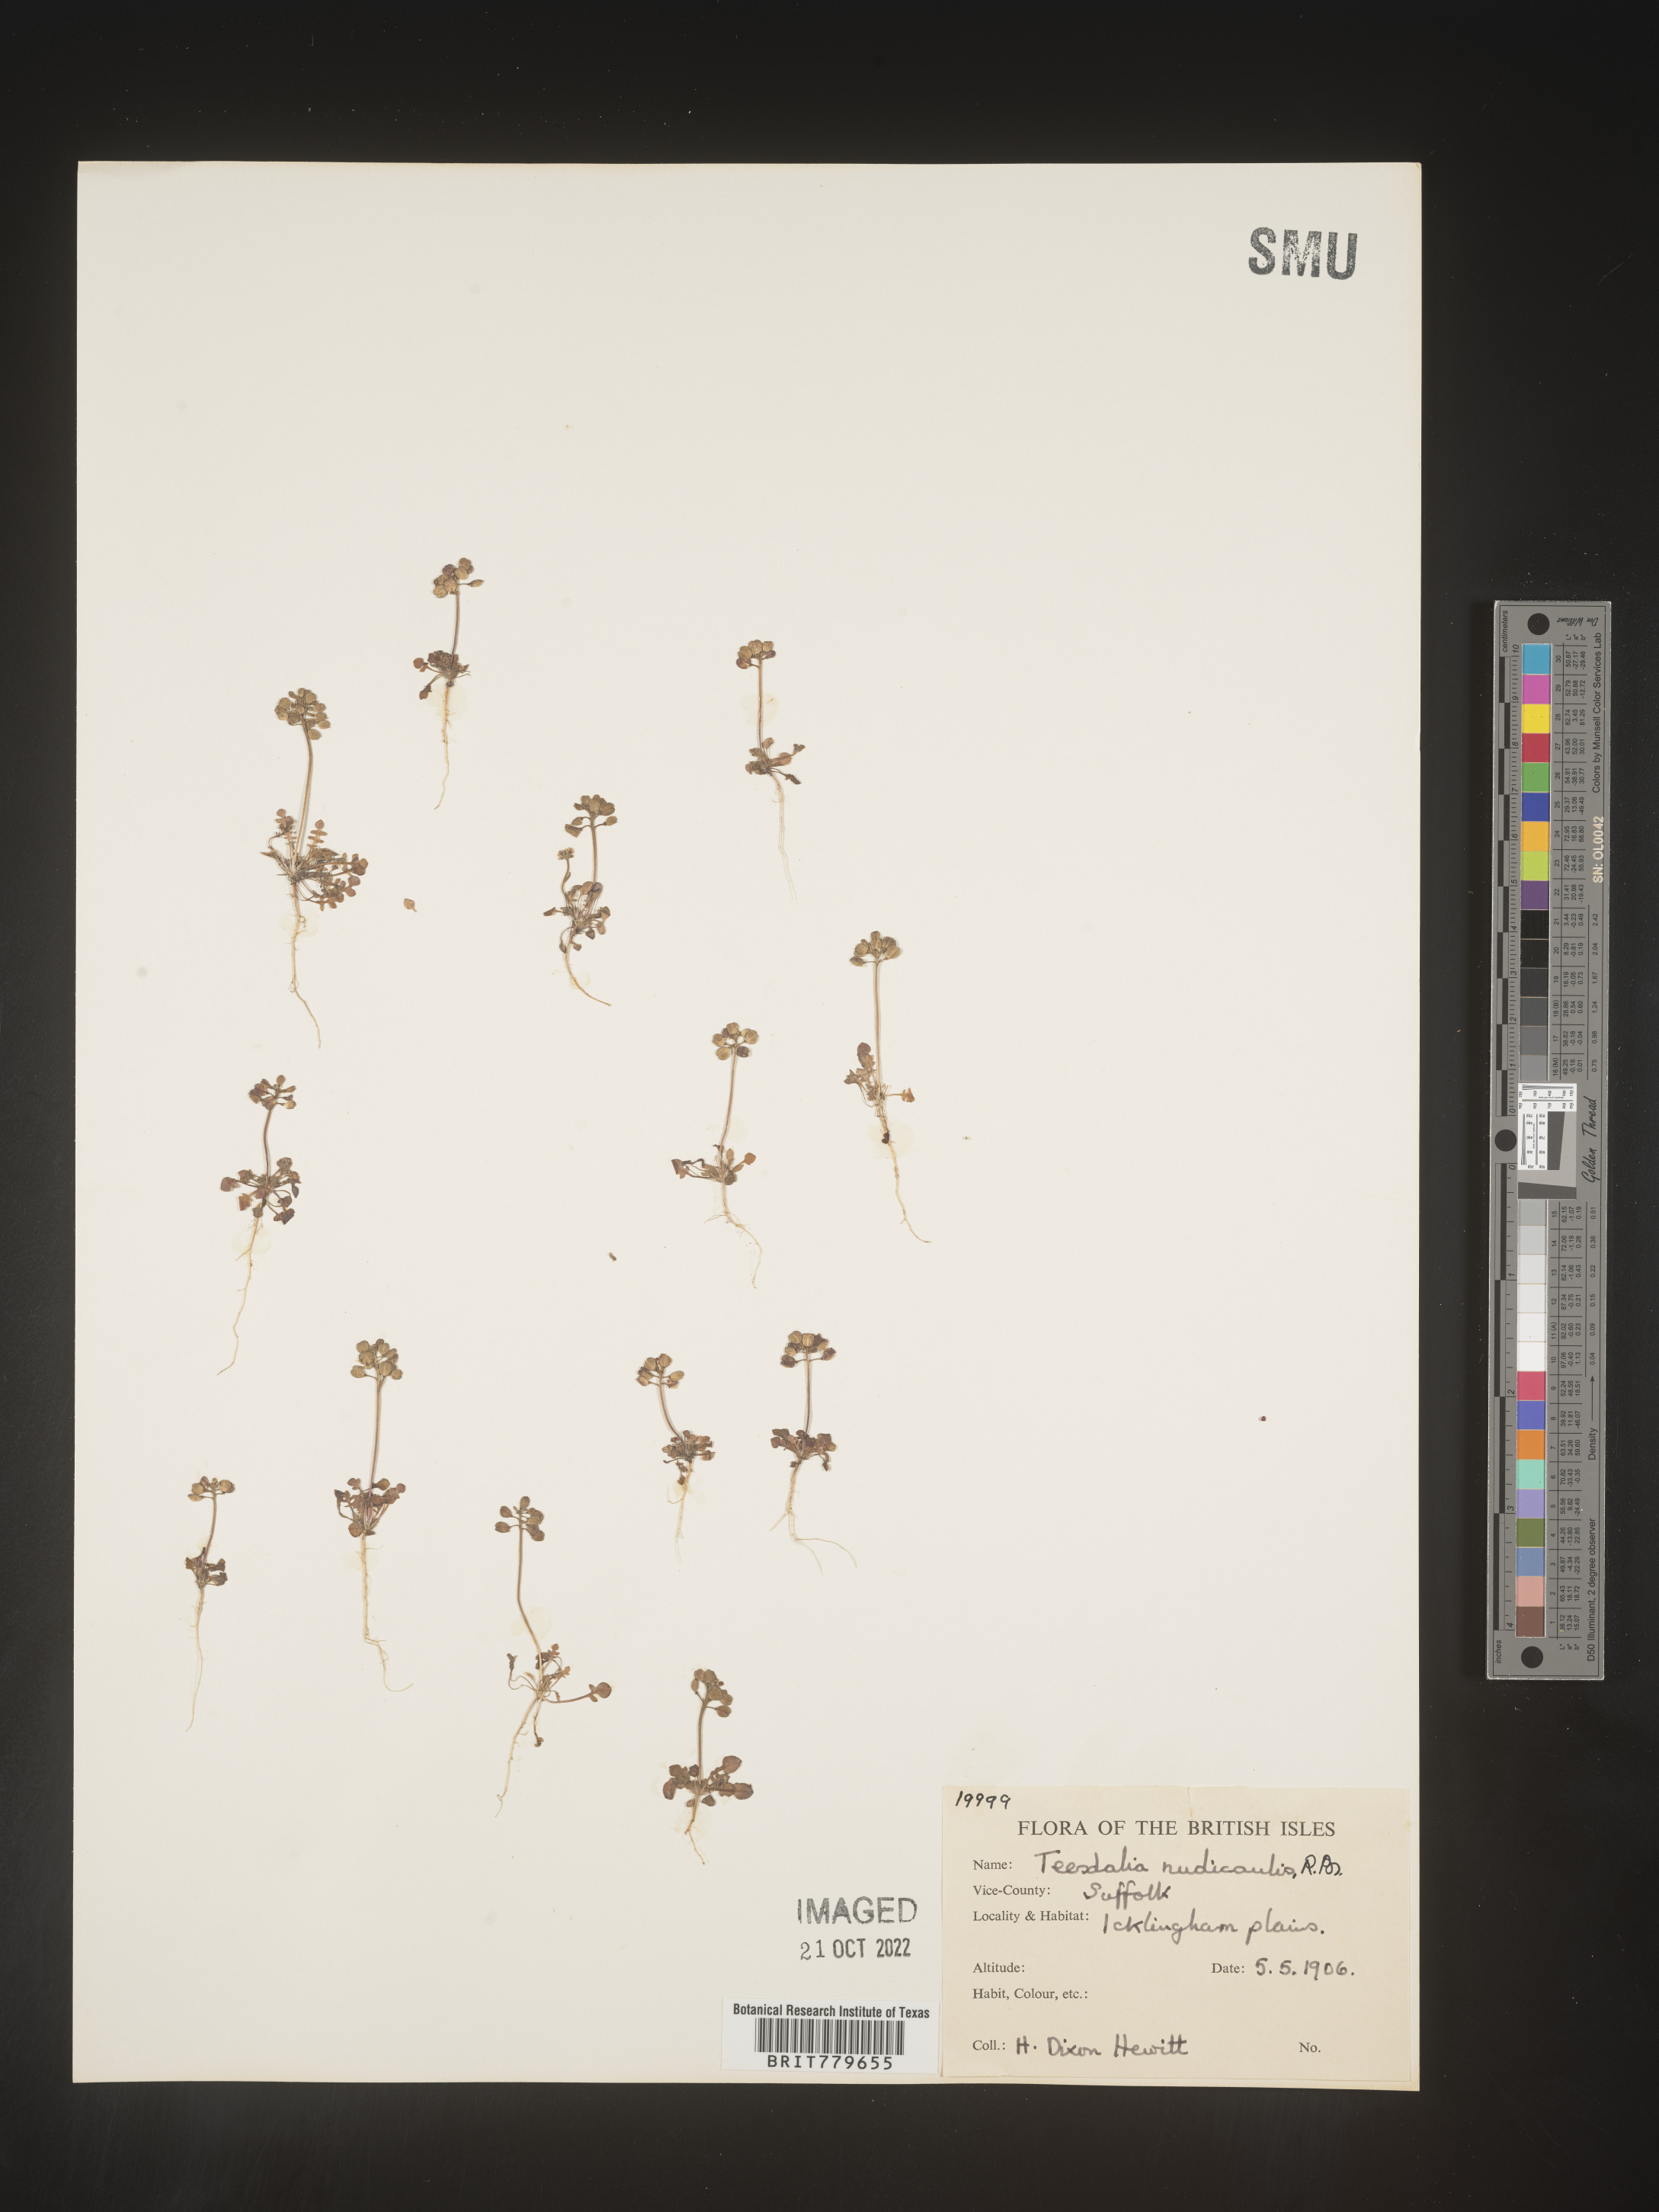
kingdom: Plantae
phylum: Tracheophyta
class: Magnoliopsida
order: Brassicales
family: Brassicaceae
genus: Teesdalia
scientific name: Teesdalia
